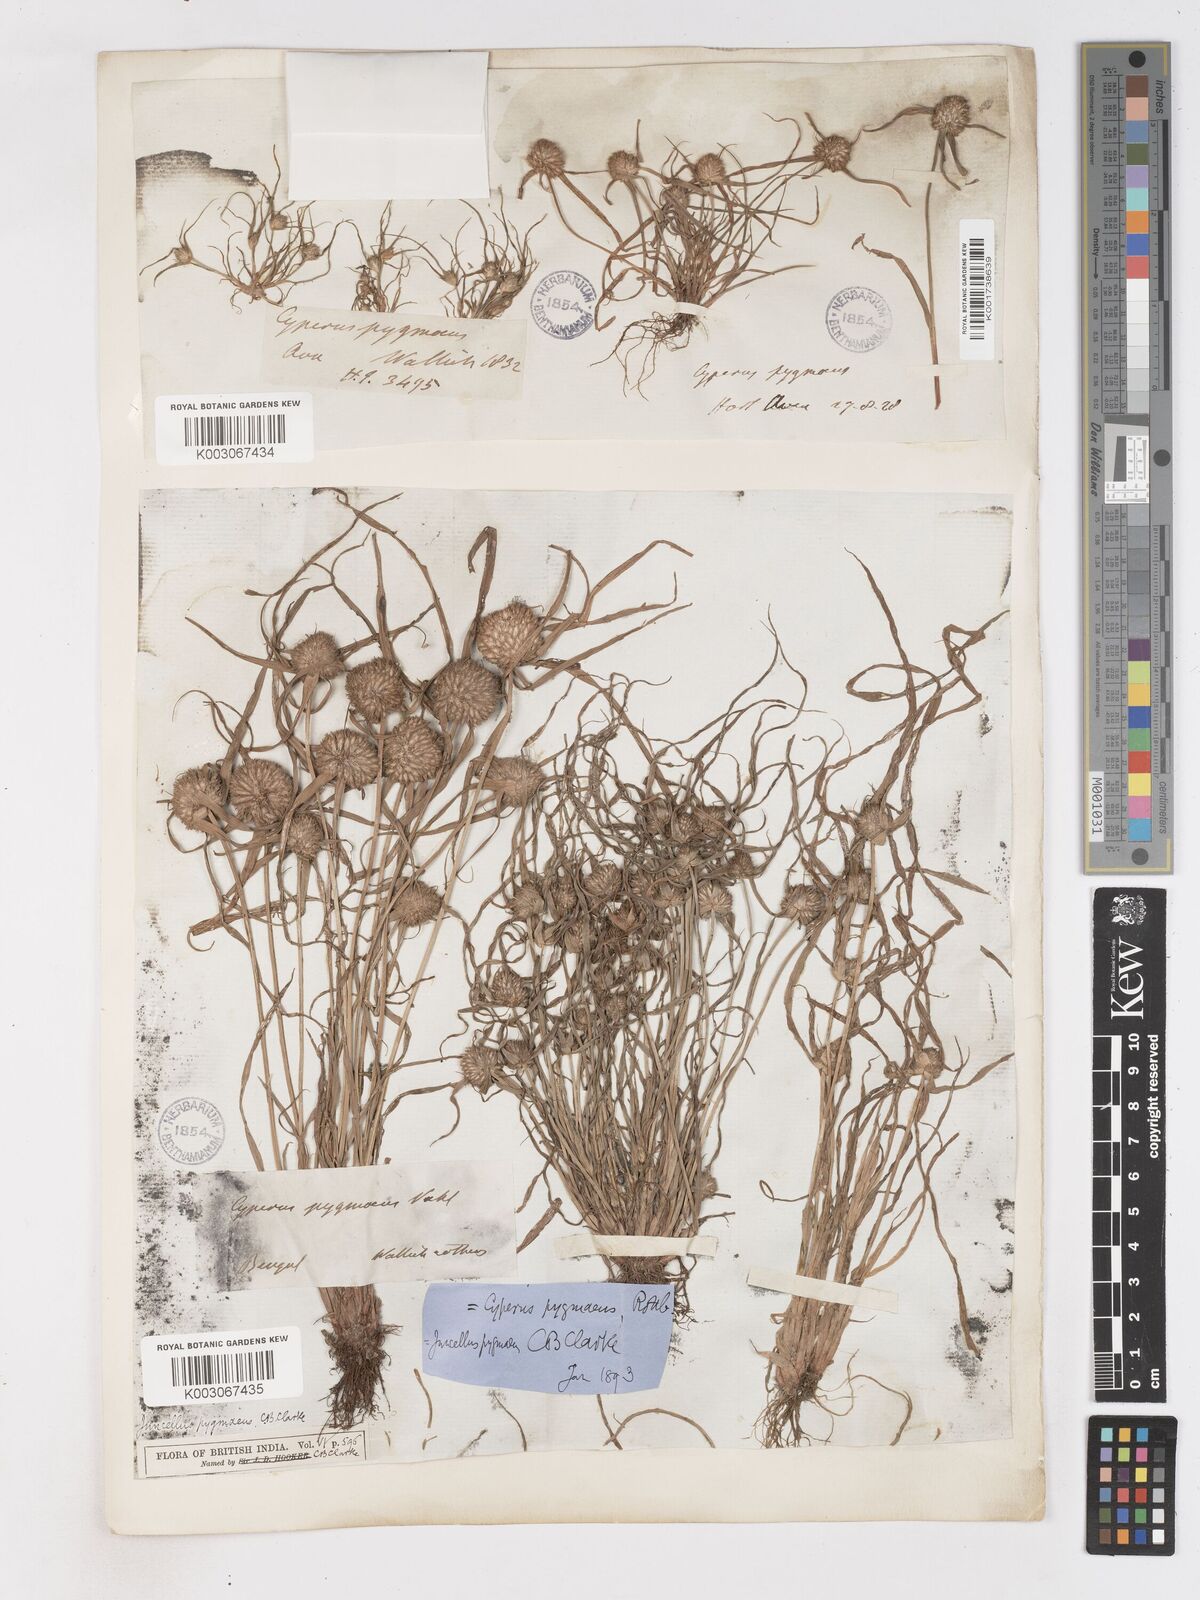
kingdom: Plantae
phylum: Tracheophyta
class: Liliopsida
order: Poales
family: Cyperaceae
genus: Cyperus
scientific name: Cyperus michelianus
